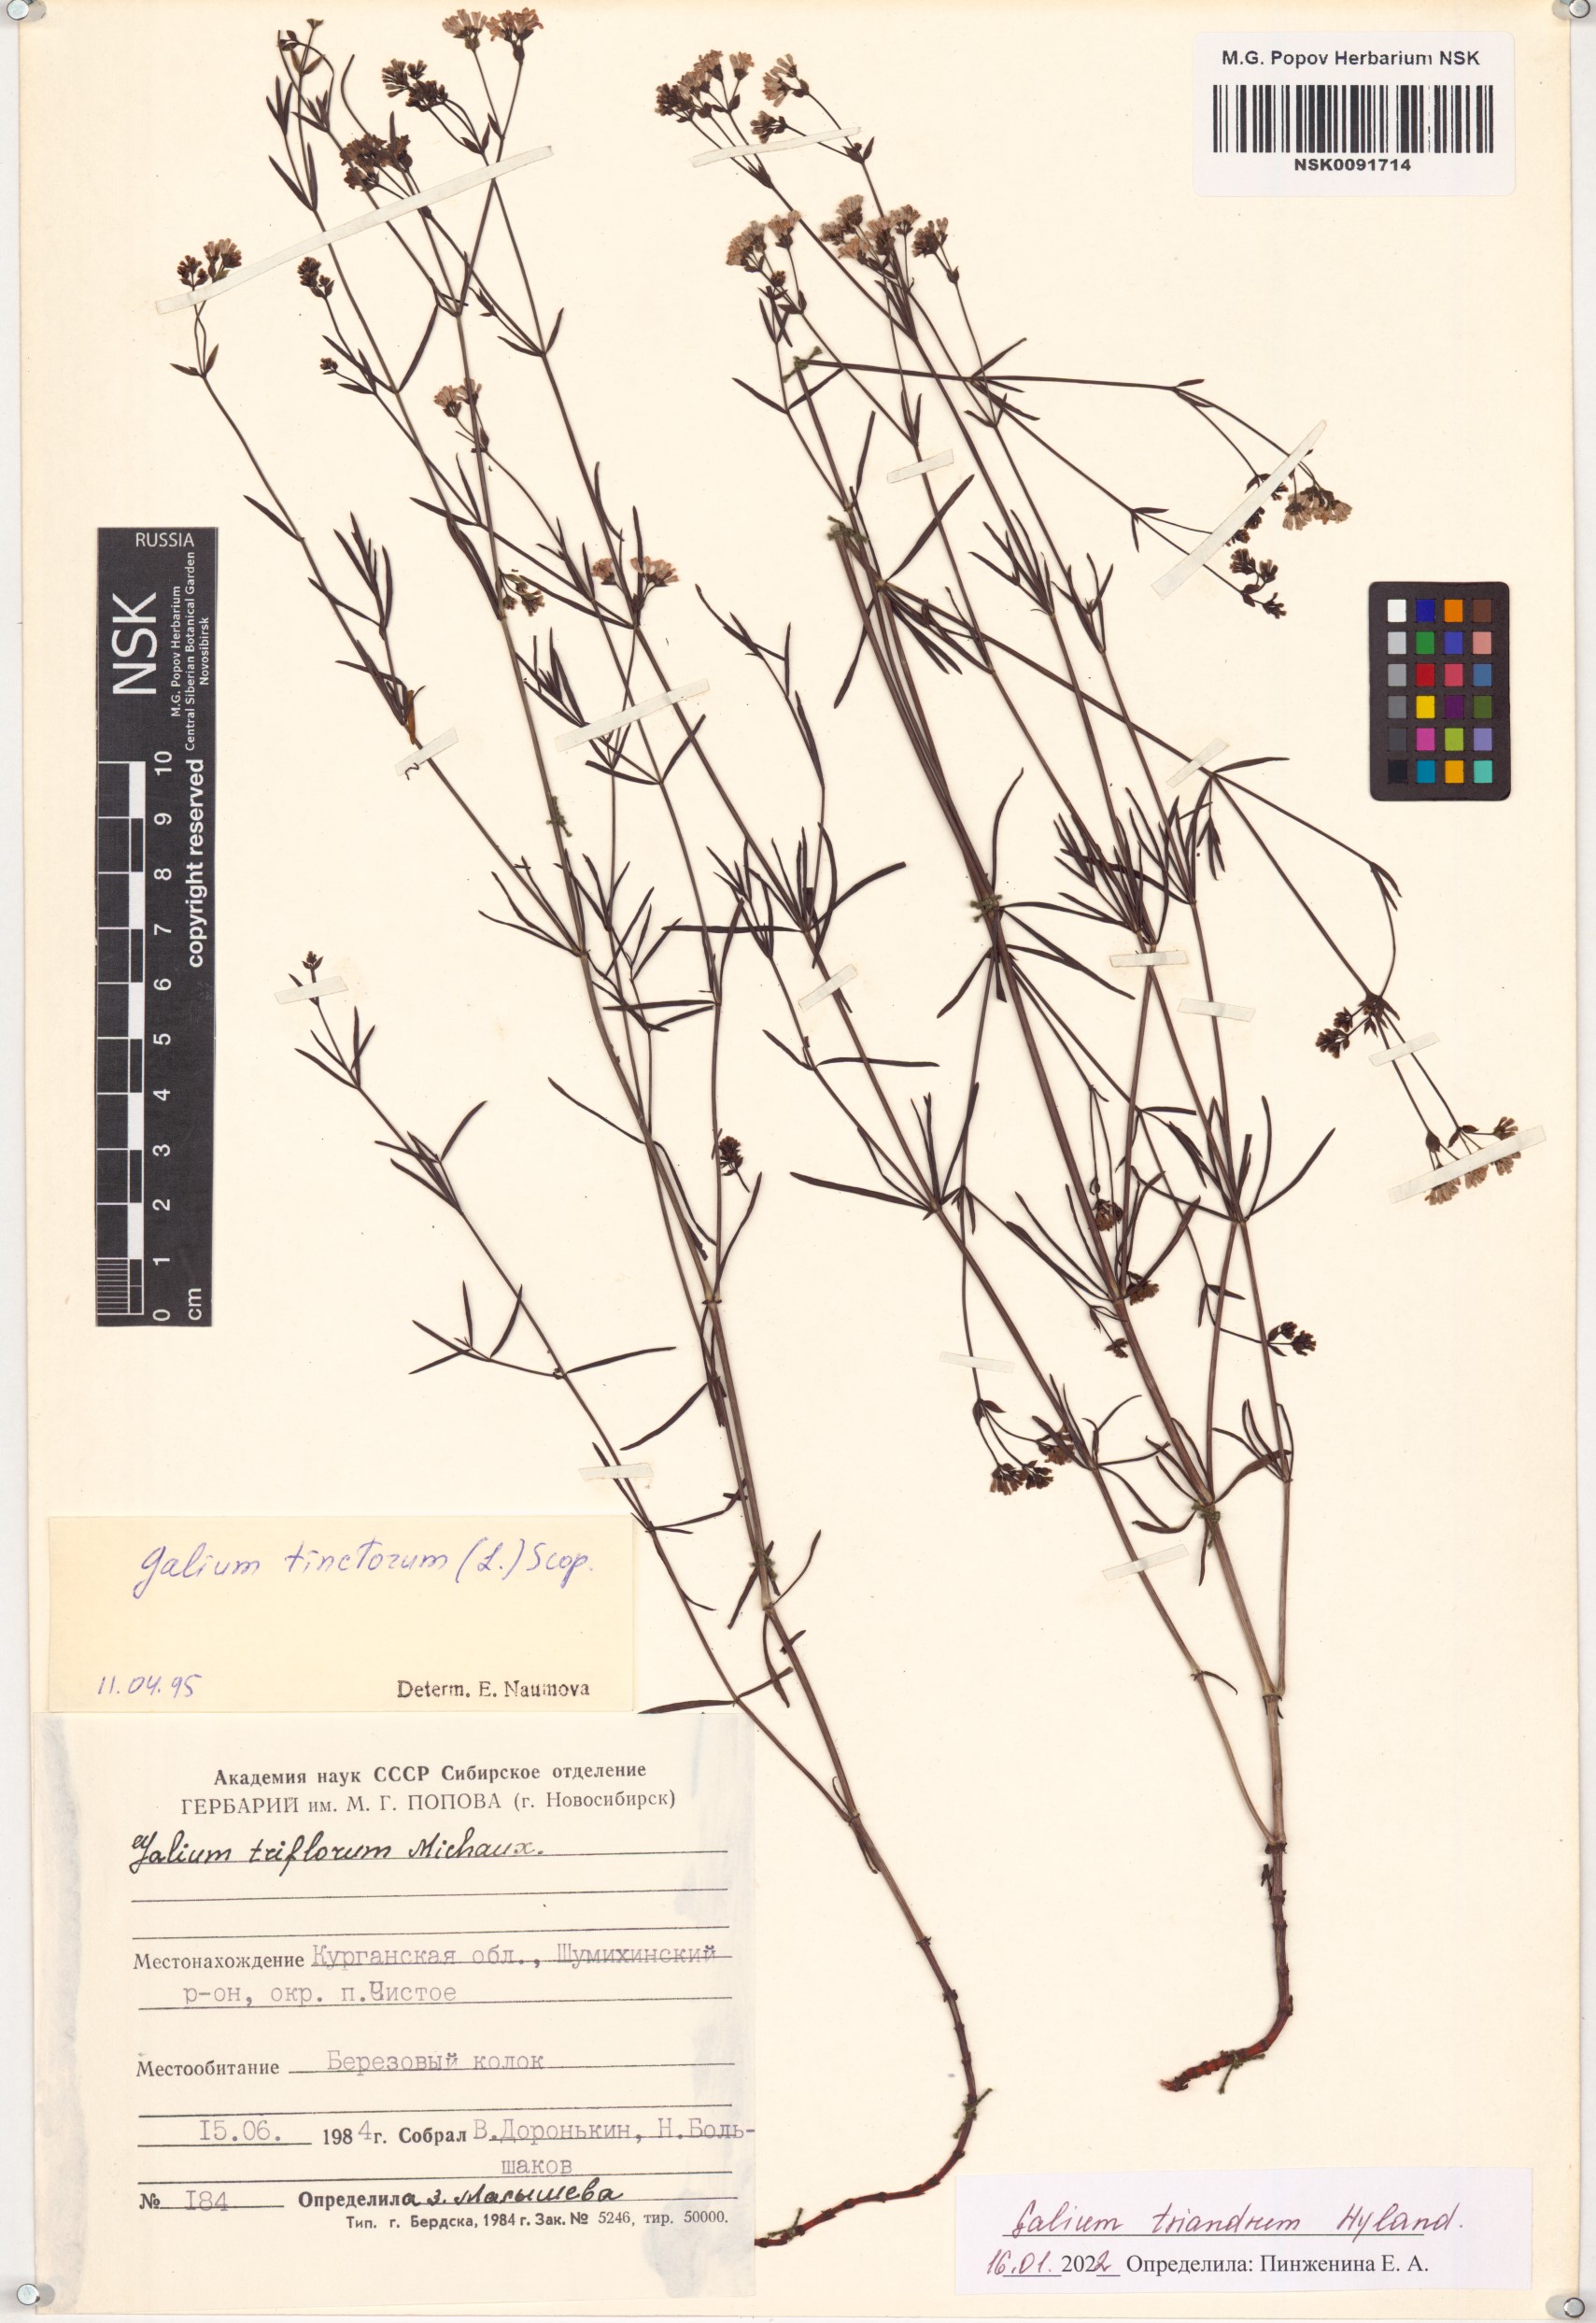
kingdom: Plantae
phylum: Tracheophyta
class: Magnoliopsida
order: Gentianales
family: Rubiaceae
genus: Asperula
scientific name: Asperula tinctoria
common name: Dyer's woodruff
